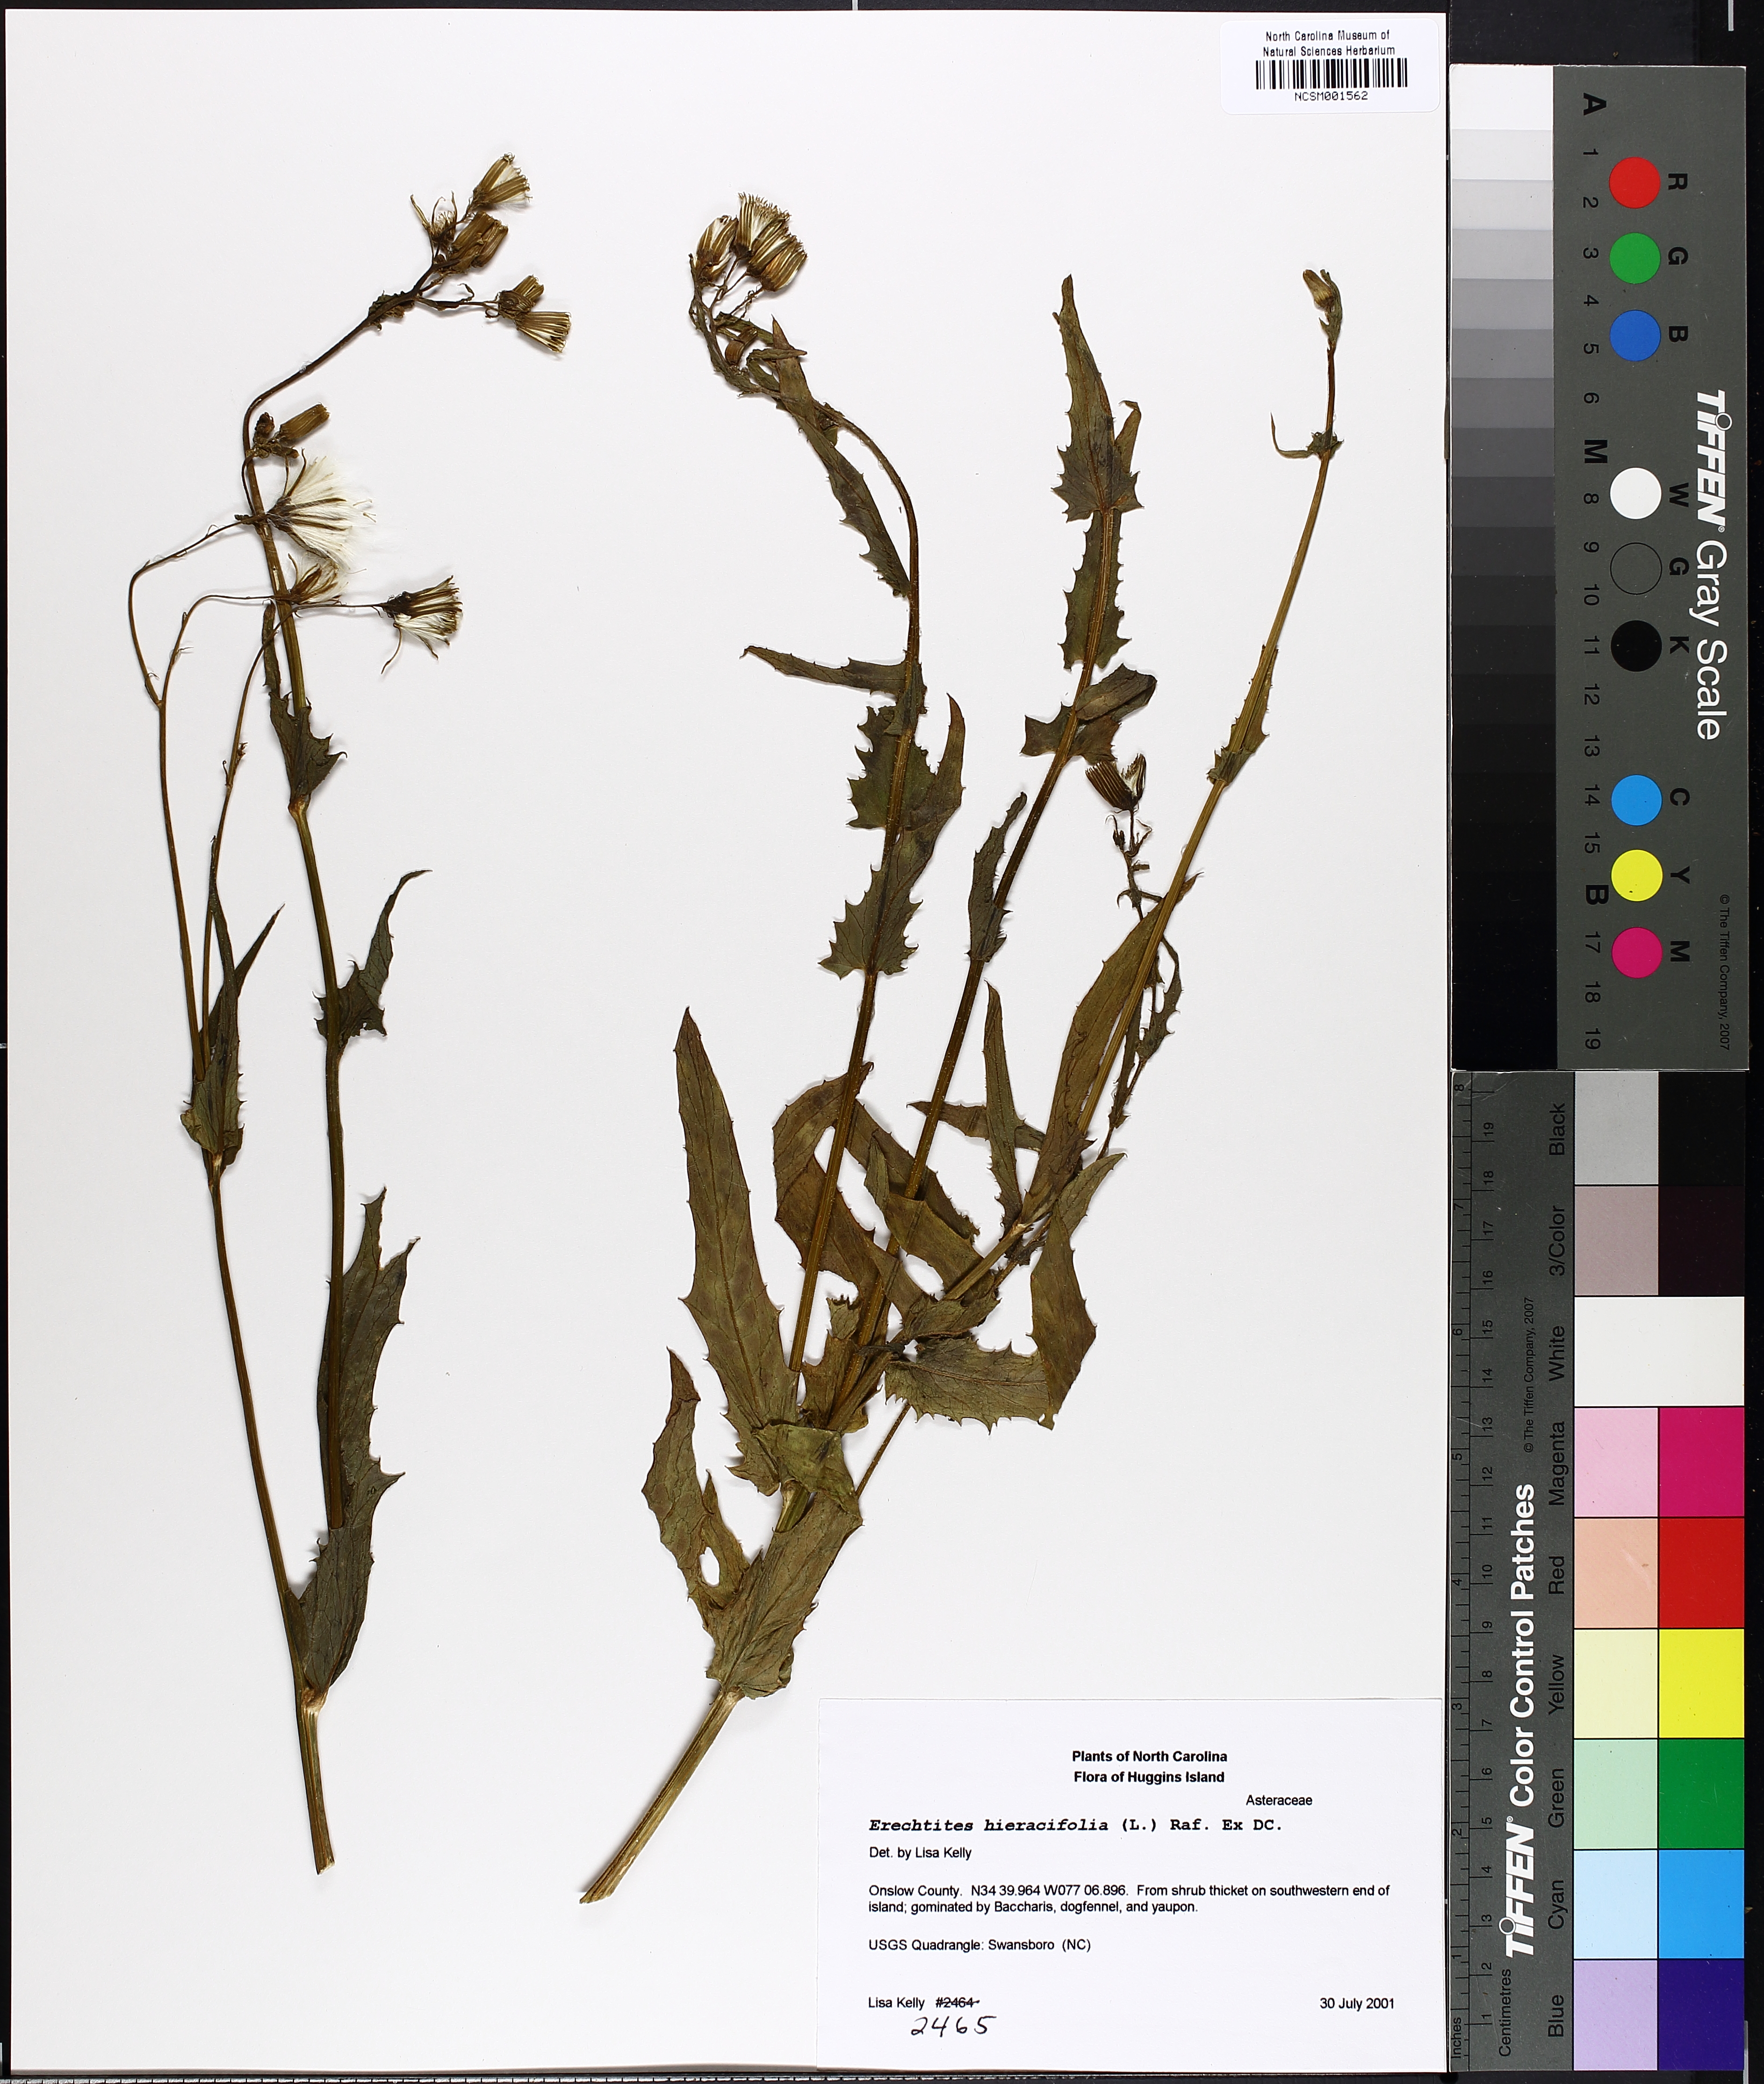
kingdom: Plantae
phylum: Tracheophyta
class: Magnoliopsida
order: Asterales
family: Asteraceae
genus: Erechtites
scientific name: Erechtites hieraciifolius
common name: American burnweed
